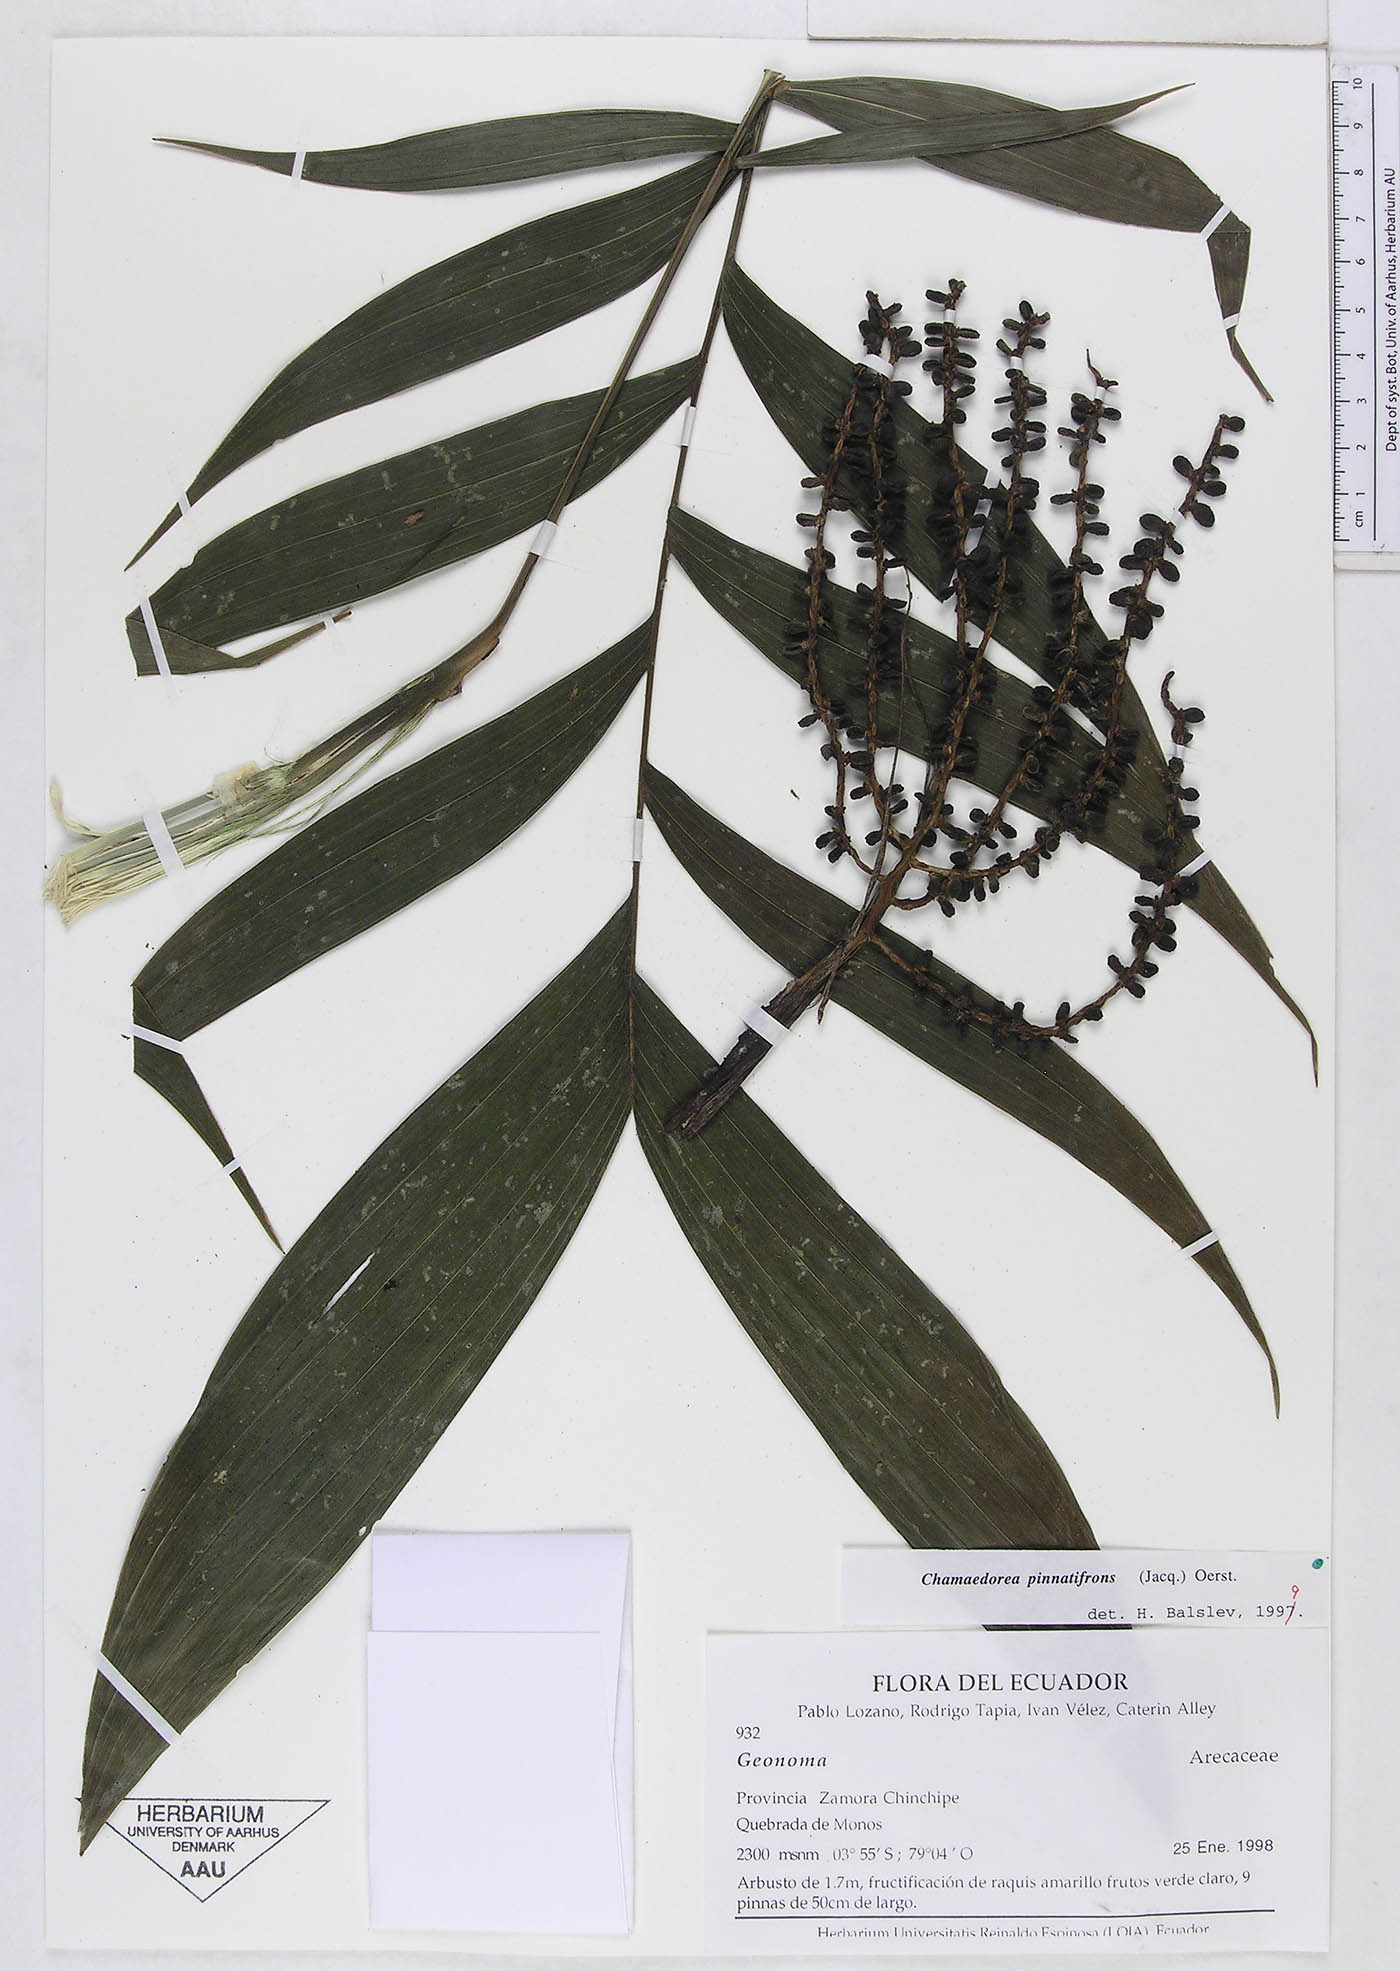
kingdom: Plantae
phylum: Tracheophyta
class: Liliopsida
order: Arecales
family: Arecaceae
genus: Chamaedorea
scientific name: Chamaedorea pinnatifrons
